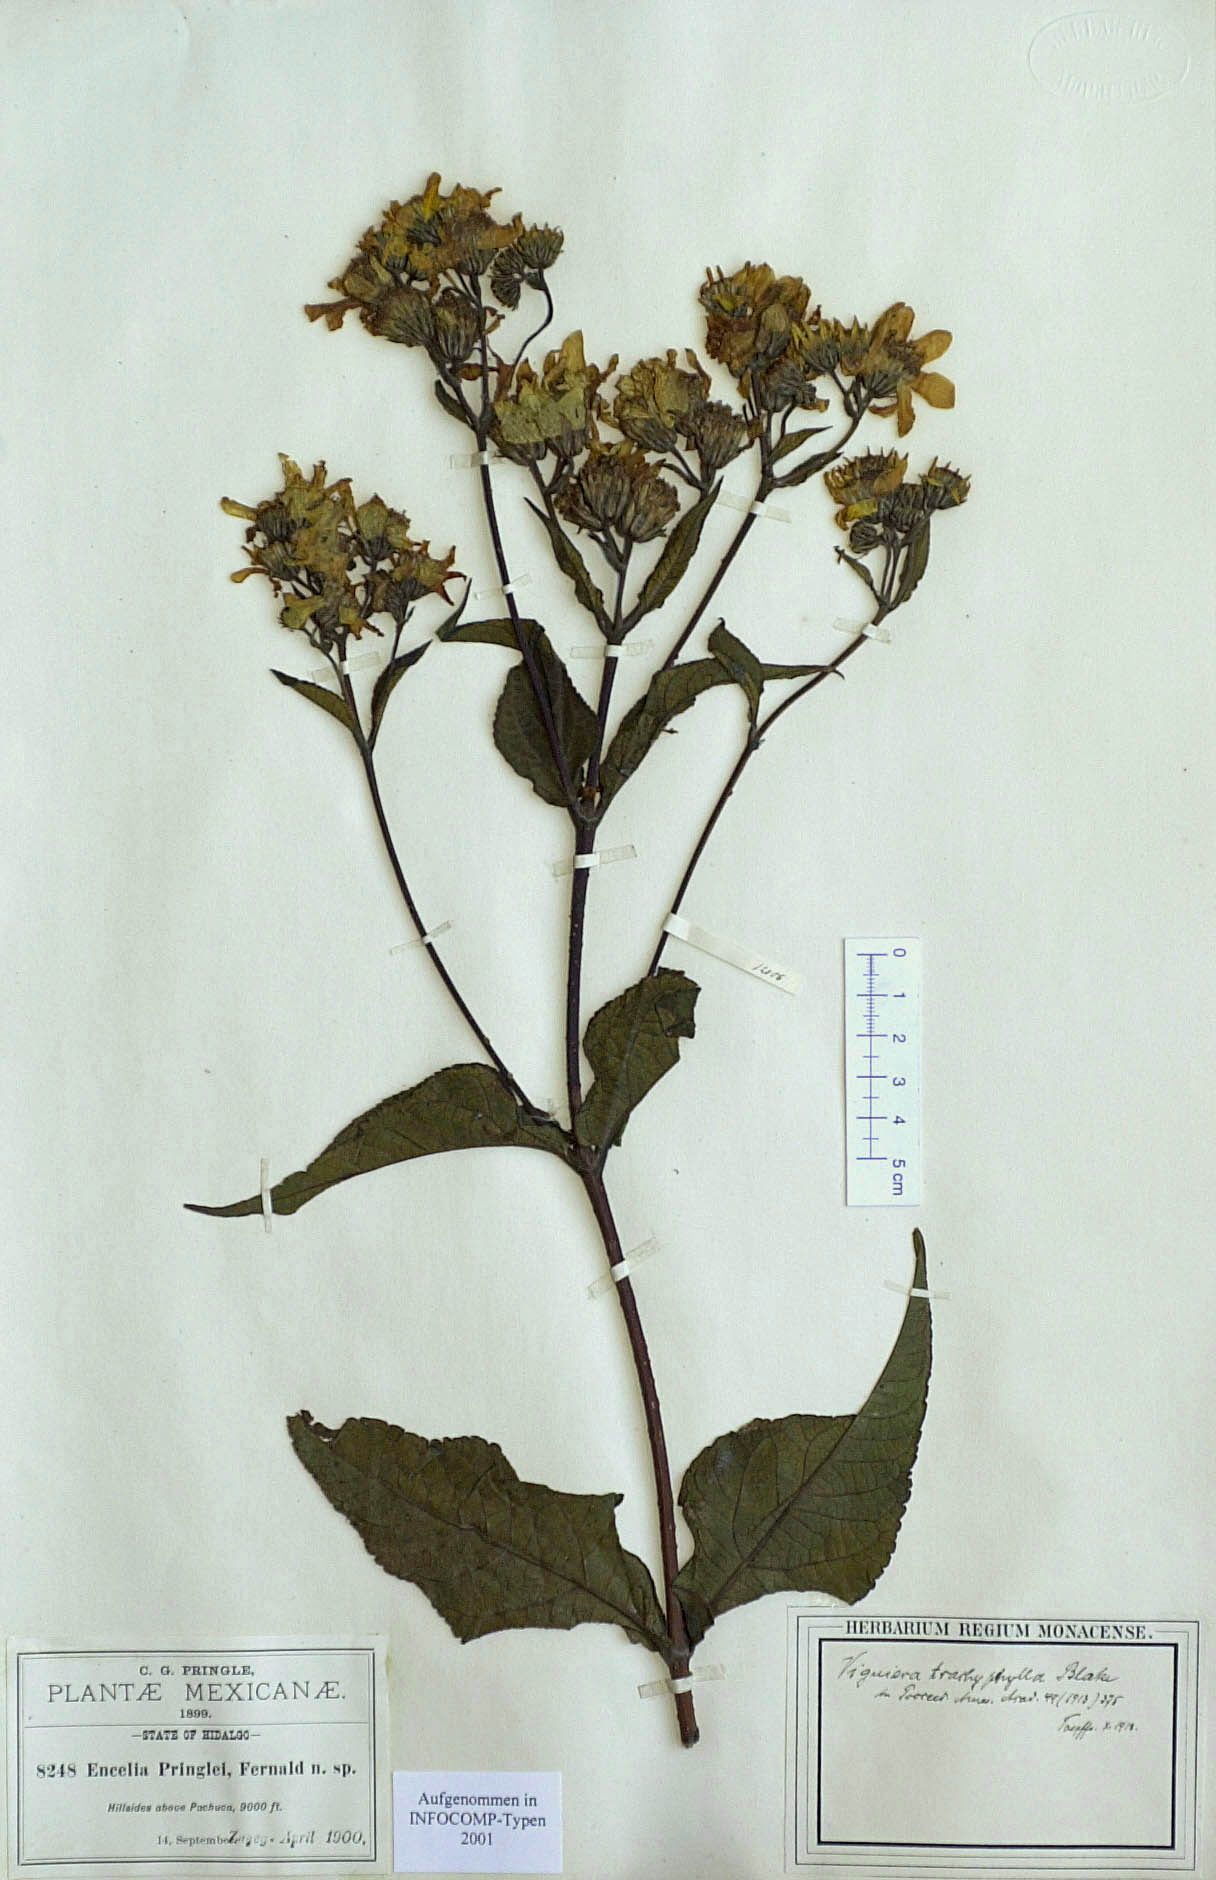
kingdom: Plantae
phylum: Tracheophyta
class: Magnoliopsida
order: Asterales
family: Asteraceae
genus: Dendroviguiera
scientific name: Dendroviguiera pringlei
